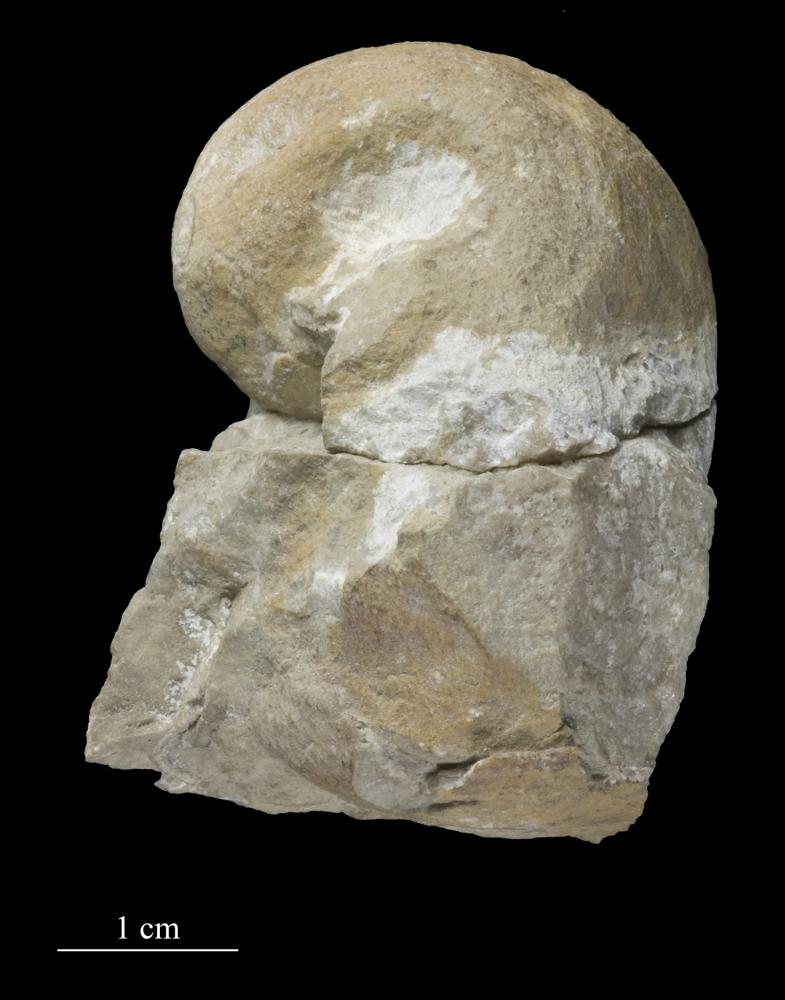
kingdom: Animalia
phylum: Mollusca
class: Gastropoda
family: Bucaniidae
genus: Kokenospira
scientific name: Kokenospira Bucaniella lateralis
